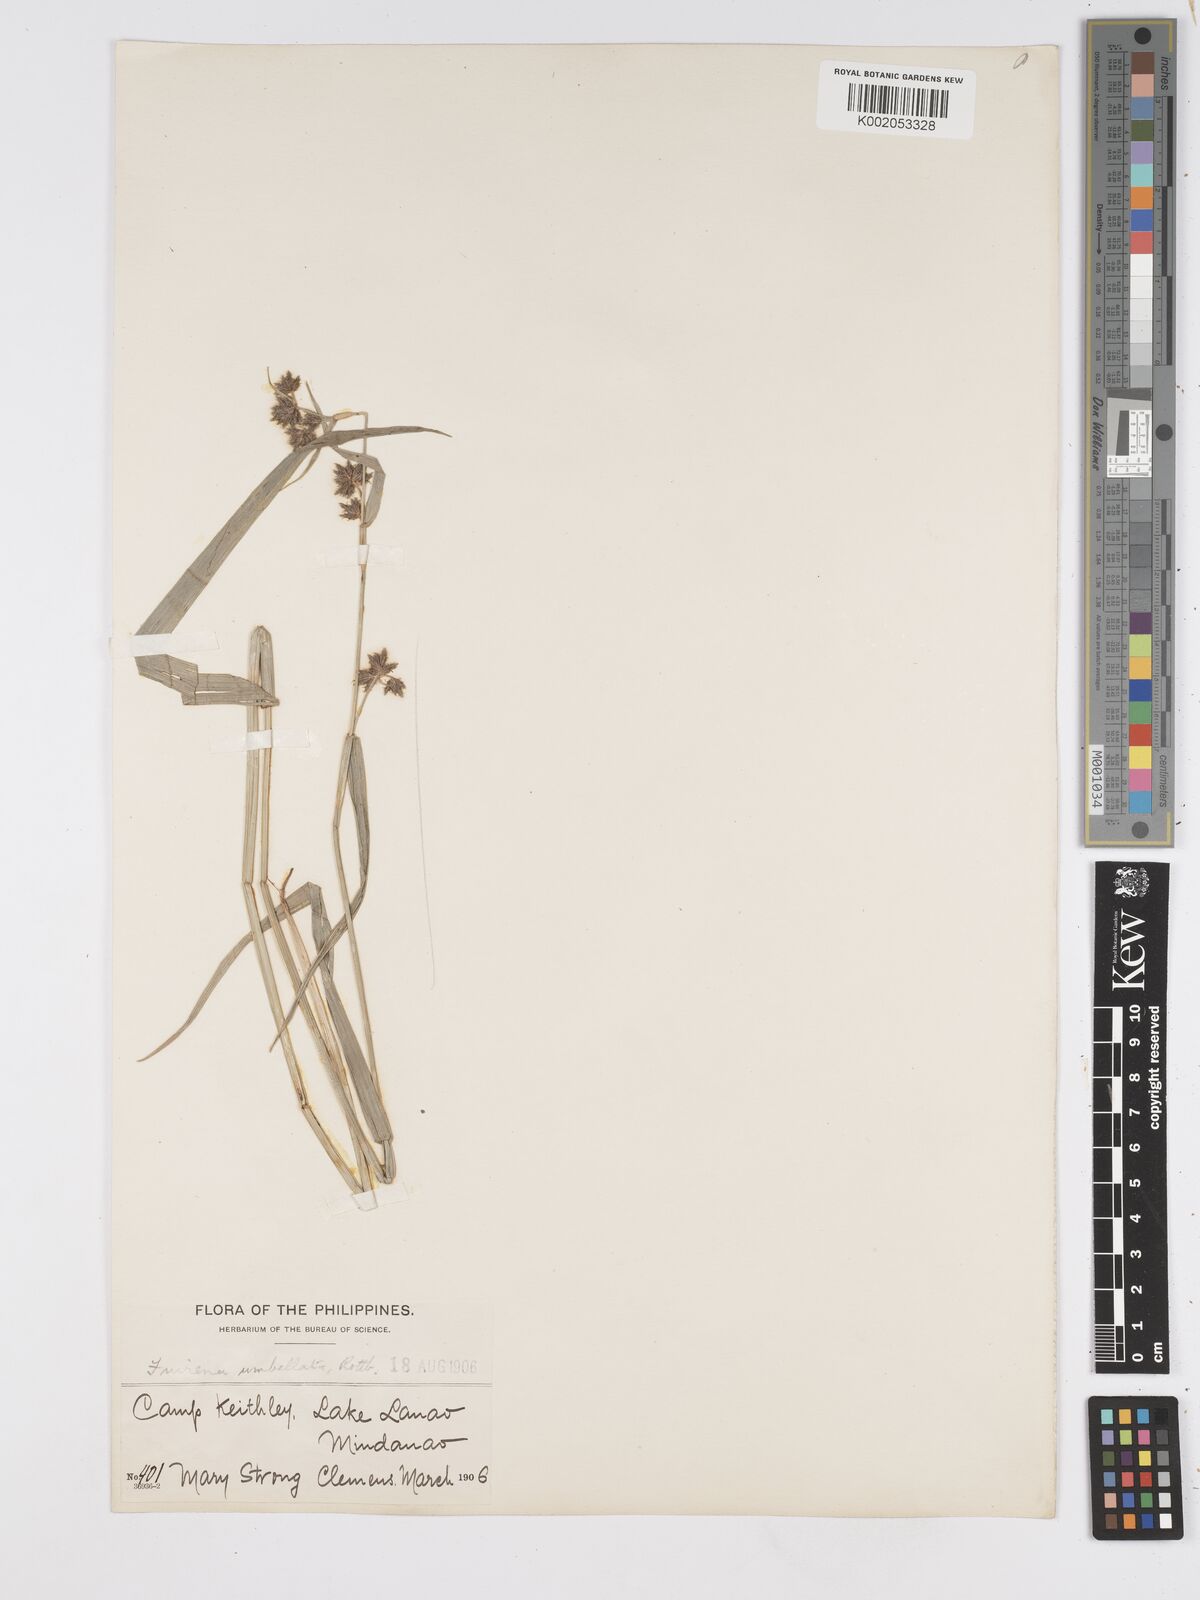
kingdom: Plantae
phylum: Tracheophyta
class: Liliopsida
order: Poales
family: Cyperaceae
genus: Fuirena
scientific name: Fuirena umbellata
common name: Yefen
